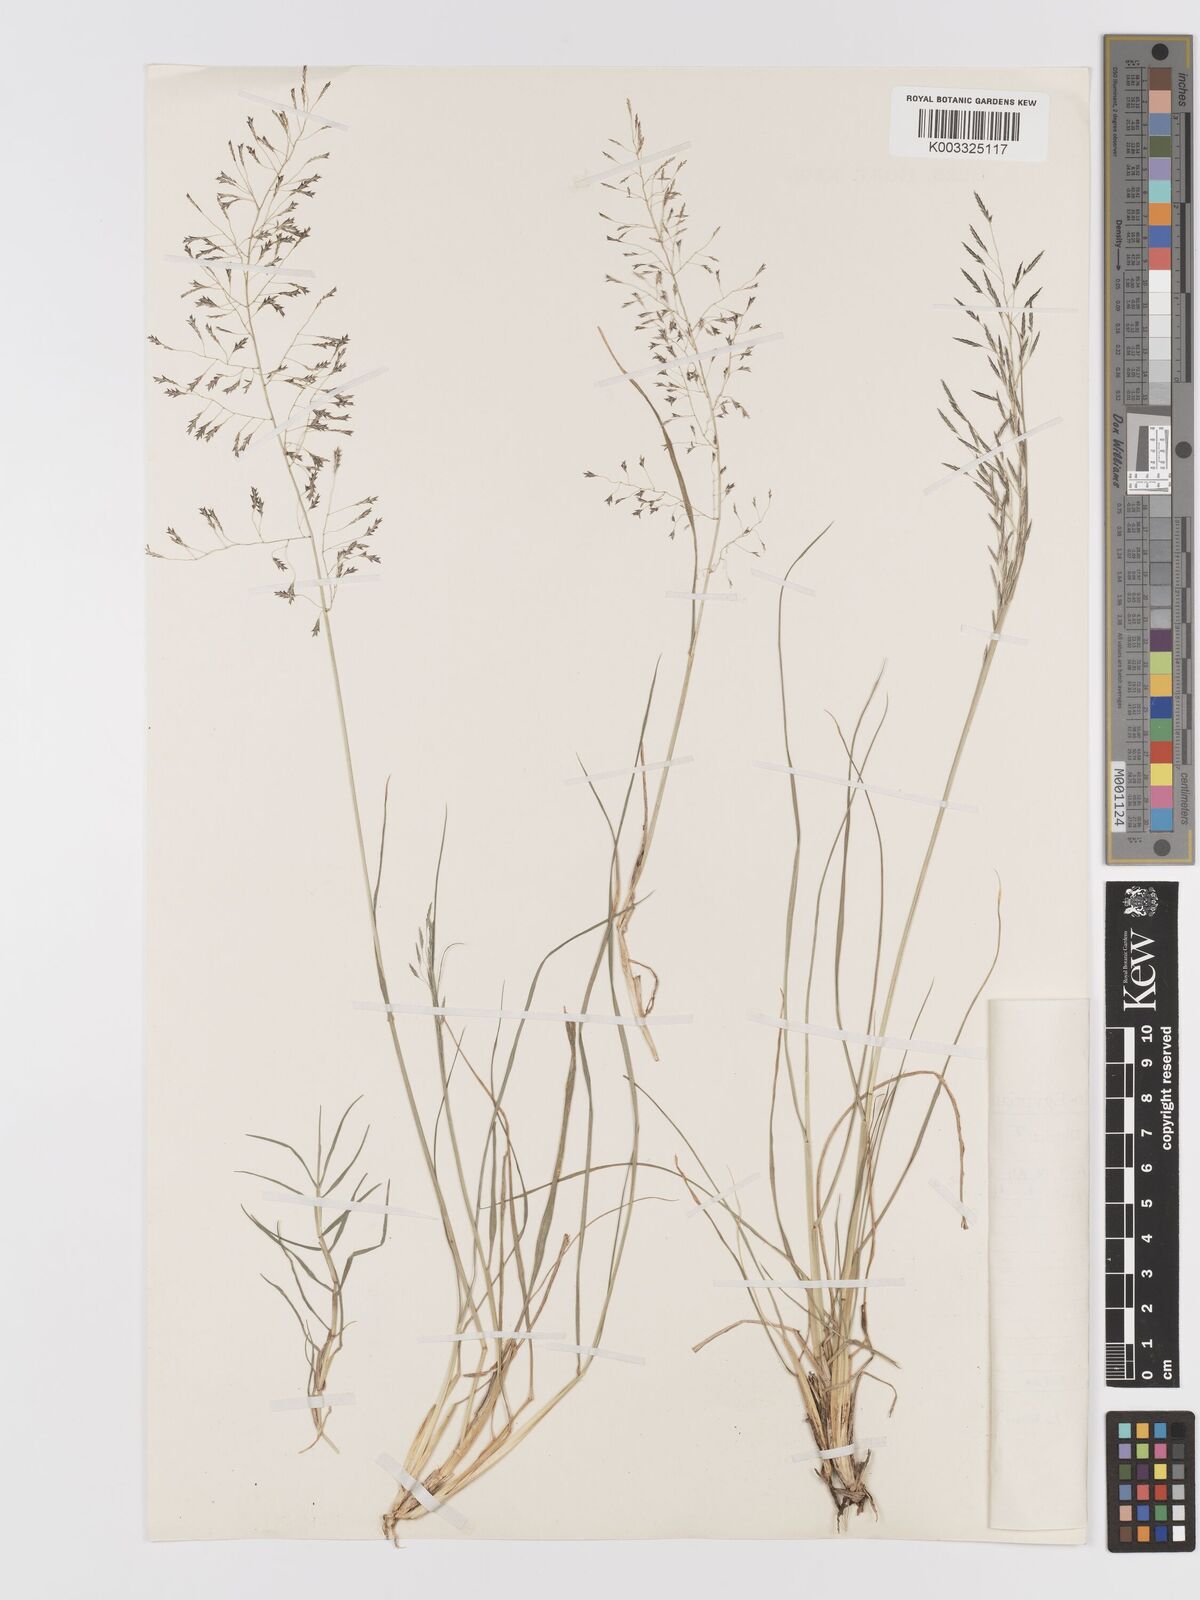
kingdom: Plantae
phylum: Tracheophyta
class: Liliopsida
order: Poales
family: Poaceae
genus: Eragrostis
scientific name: Eragrostis tenuifolia
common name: Elastic grass
